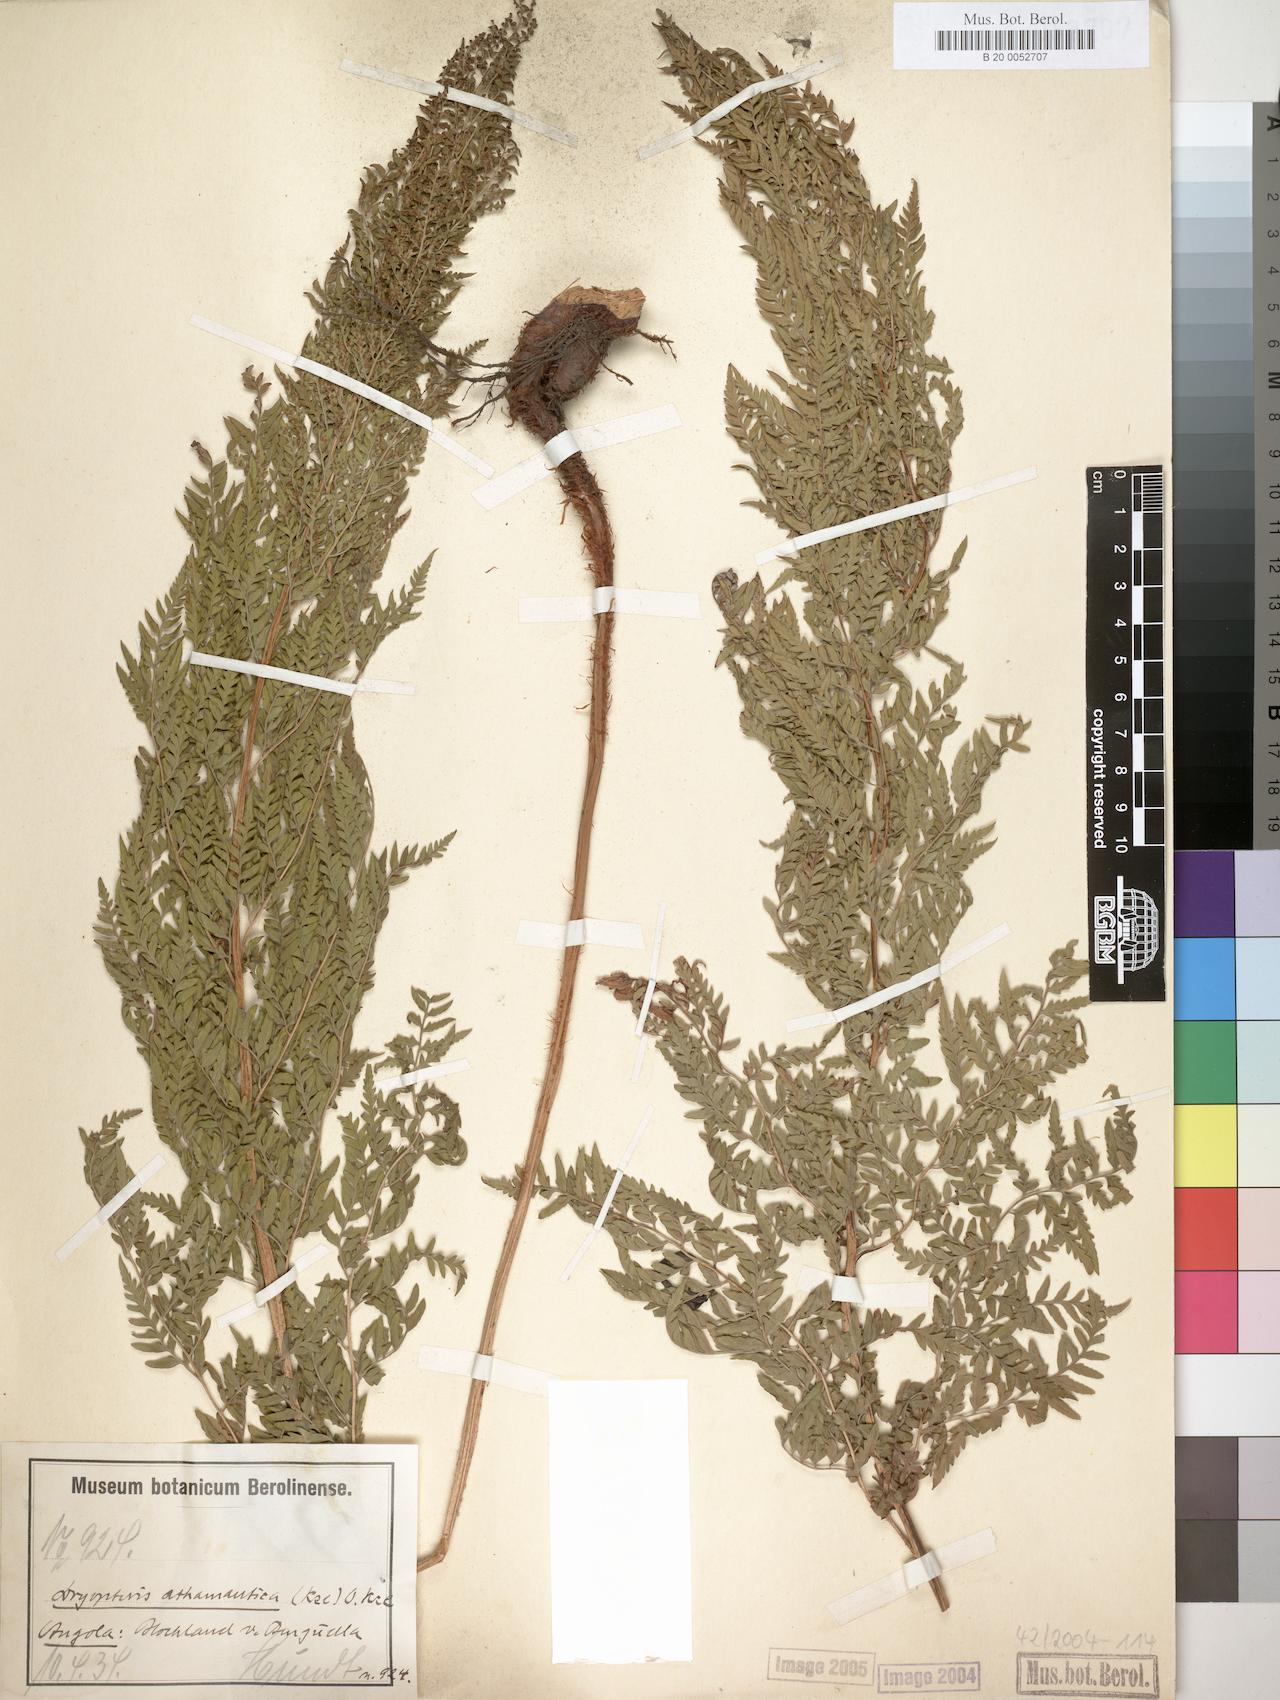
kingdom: Plantae
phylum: Tracheophyta
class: Polypodiopsida
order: Polypodiales
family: Dryopteridaceae
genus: Dryopteris
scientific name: Dryopteris athamantica
